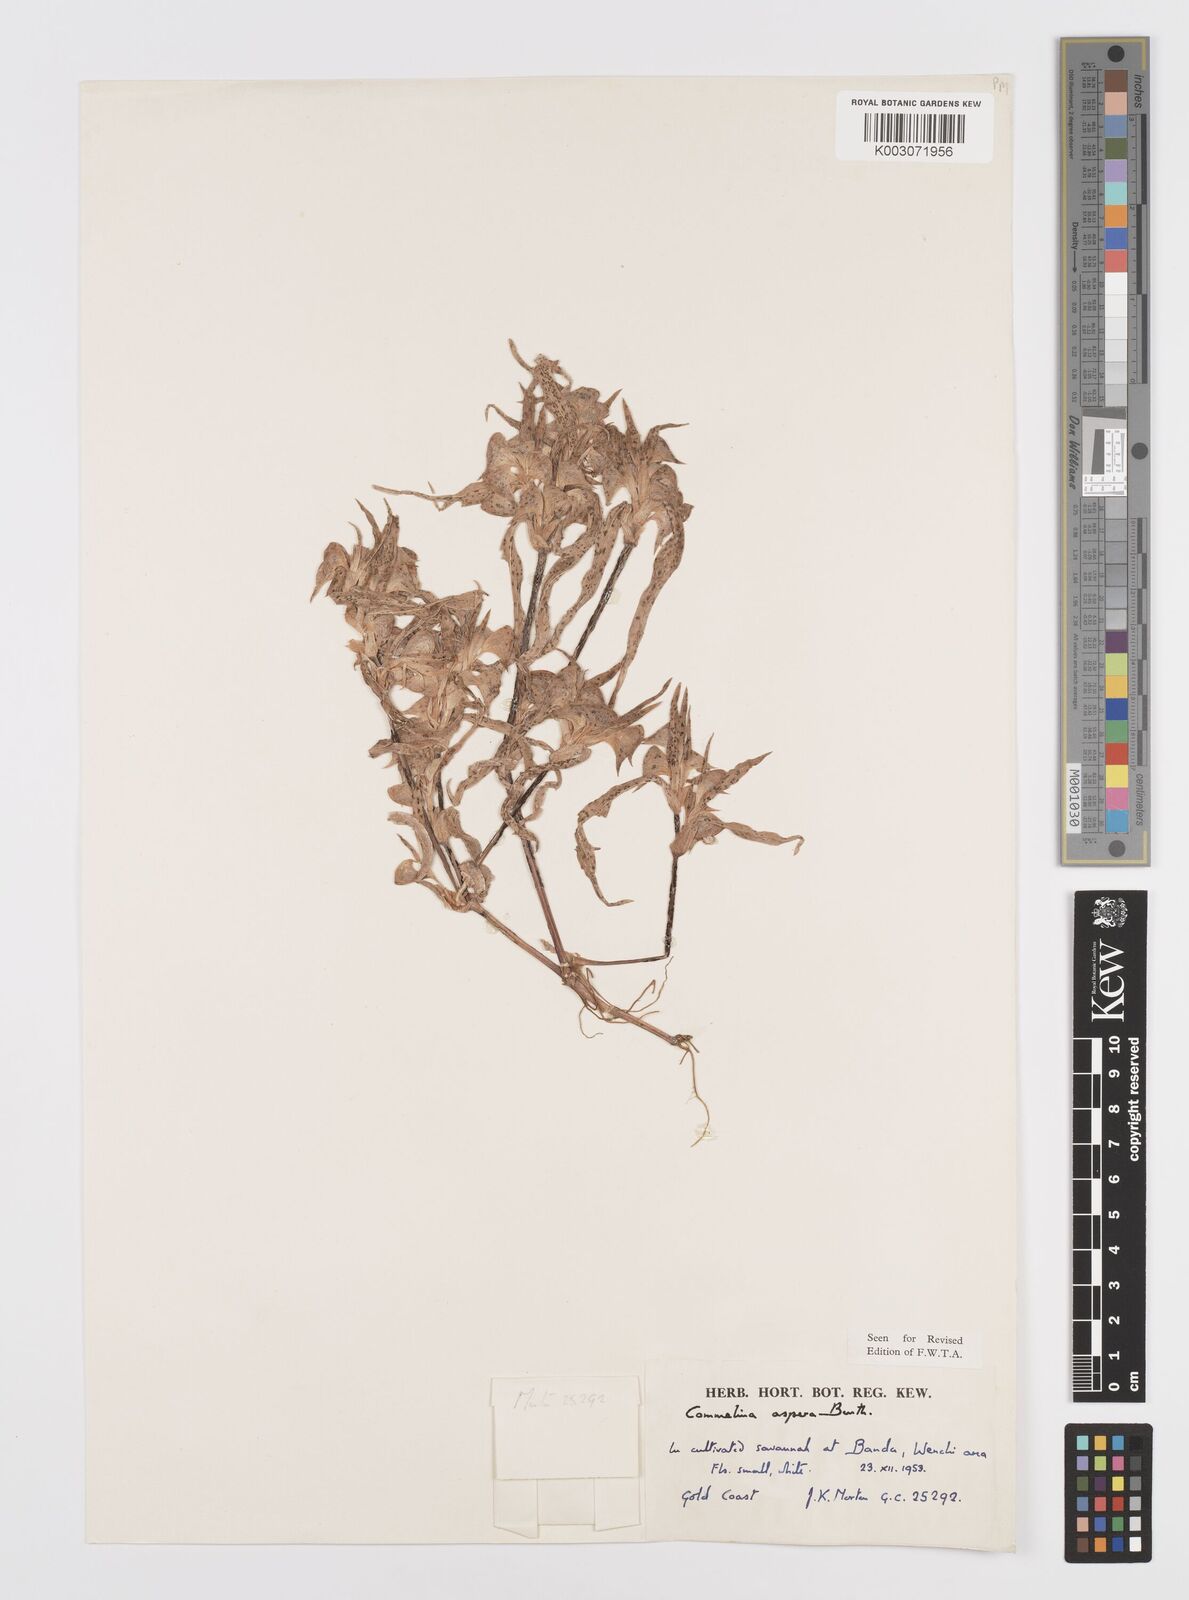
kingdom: Plantae
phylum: Tracheophyta
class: Liliopsida
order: Commelinales
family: Commelinaceae
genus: Commelina
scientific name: Commelina aspera
